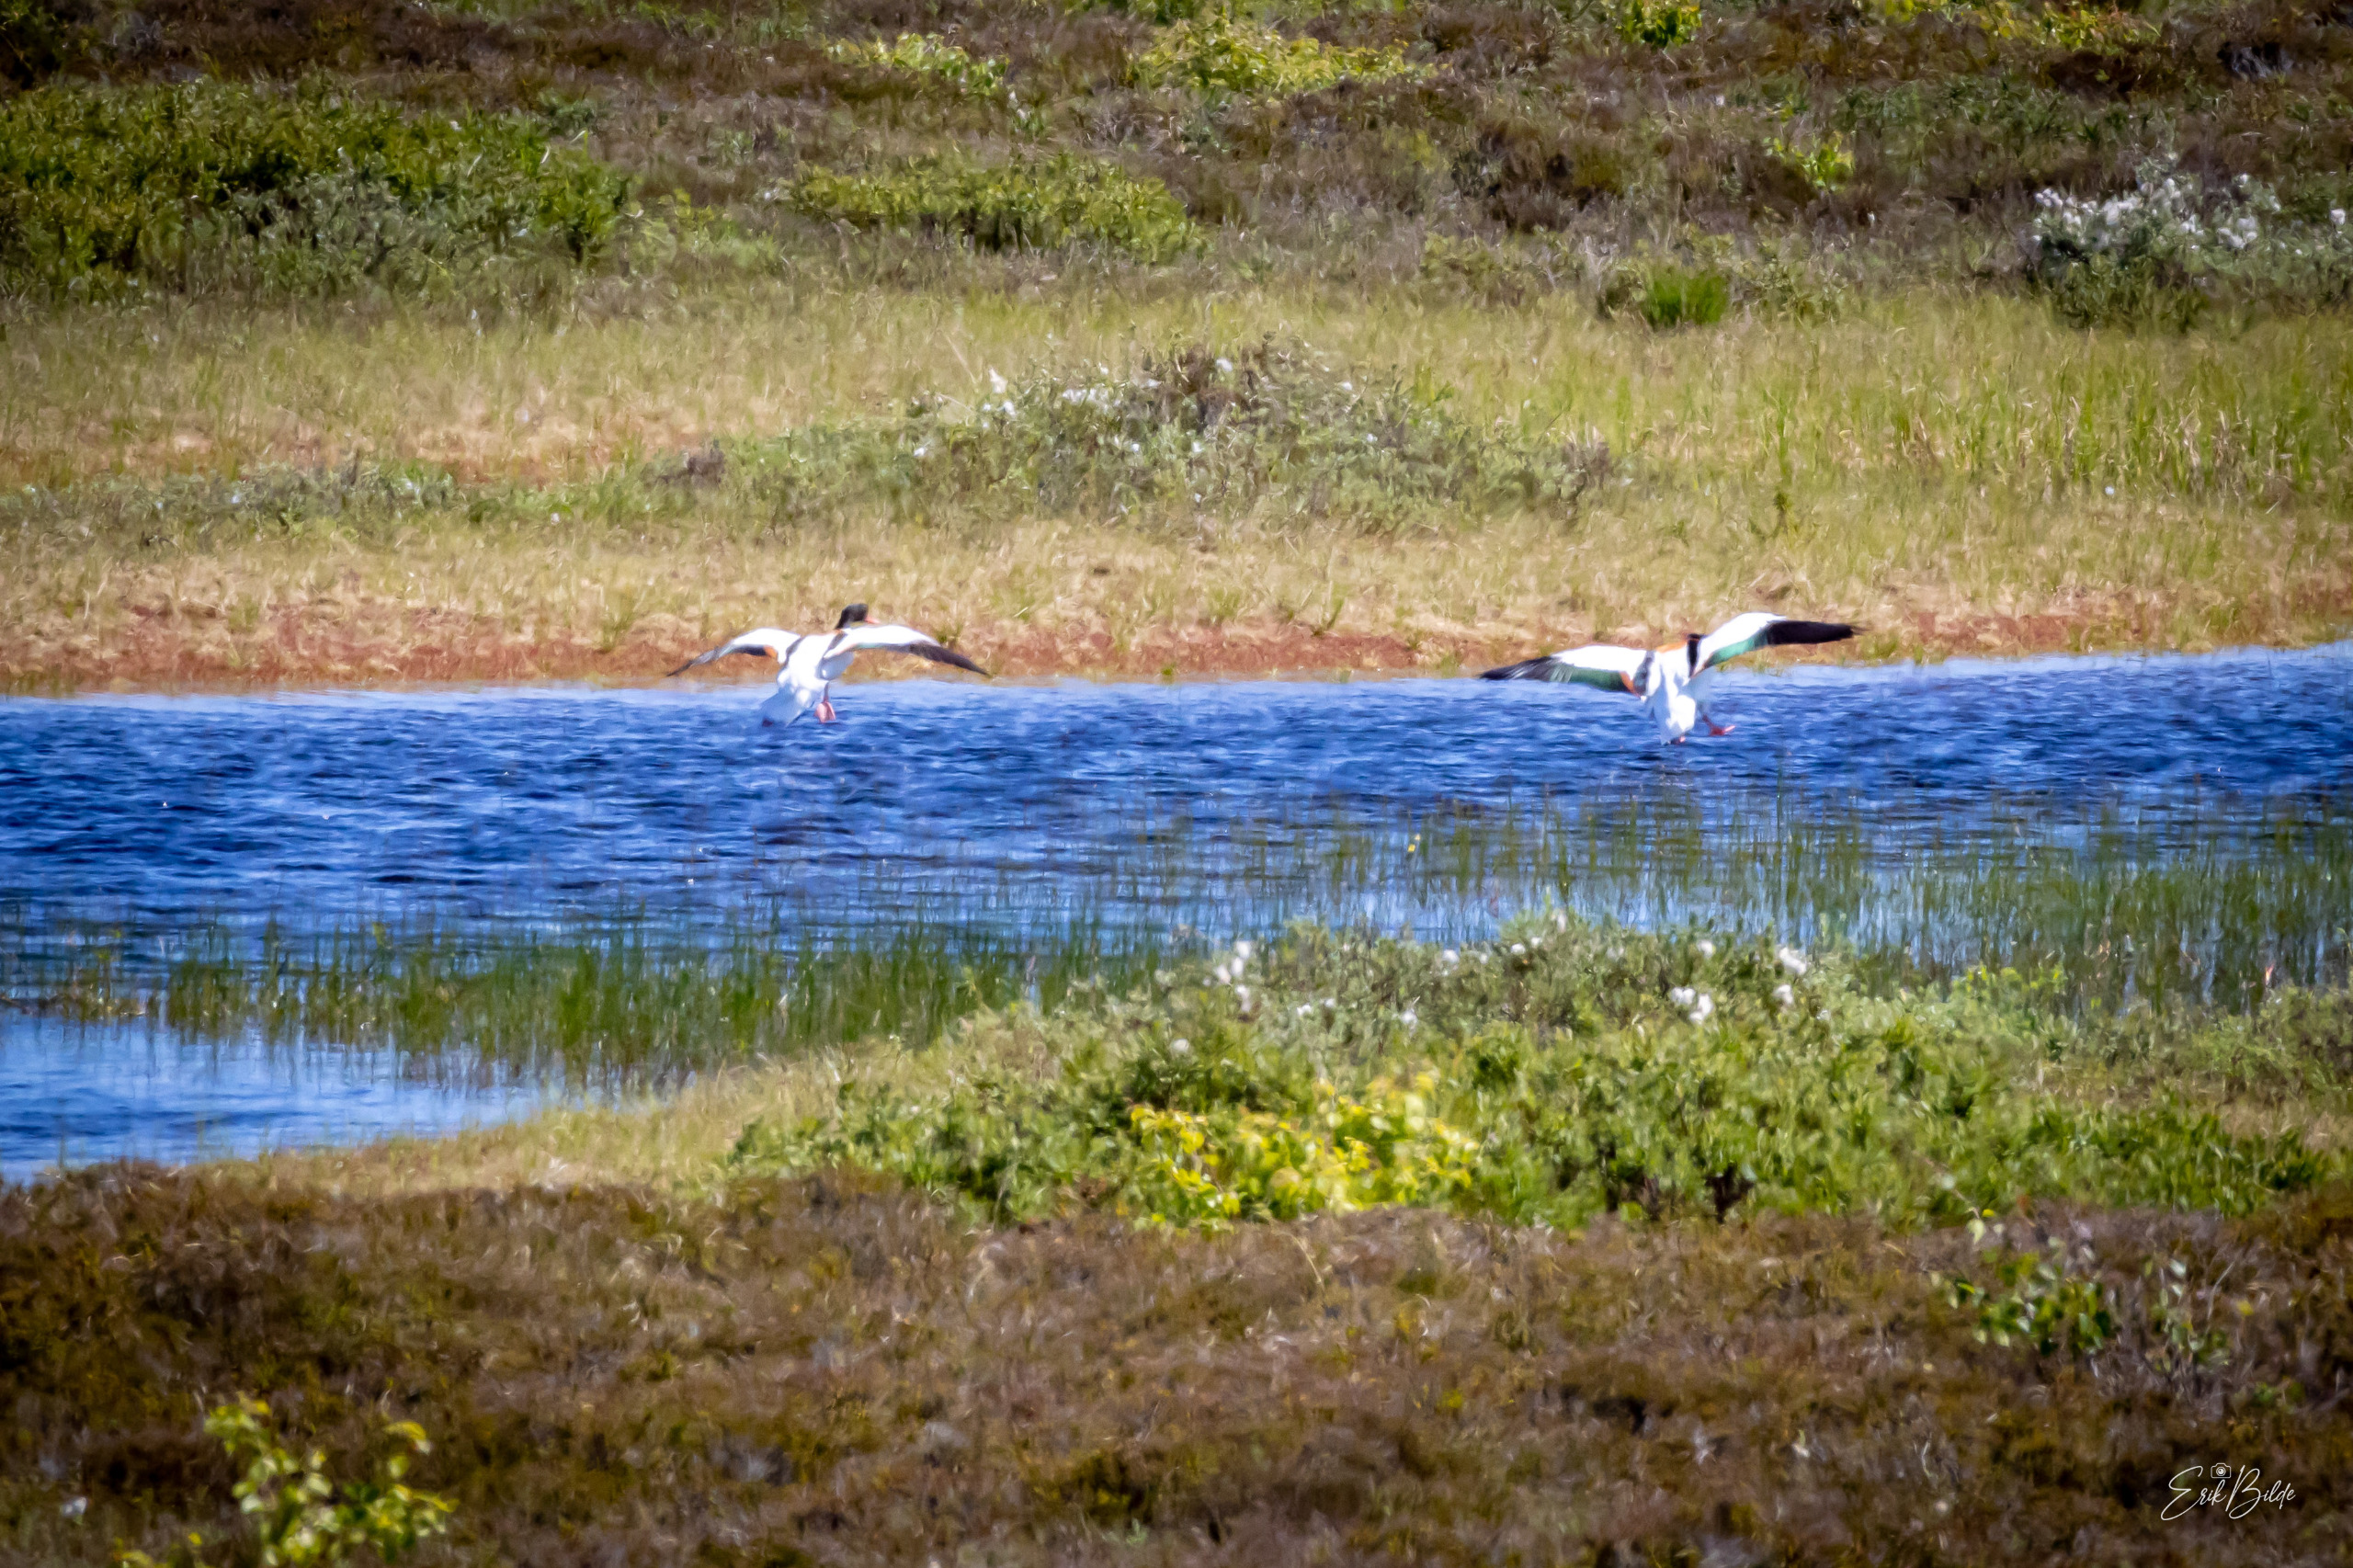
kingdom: Animalia
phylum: Chordata
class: Aves
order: Anseriformes
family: Anatidae
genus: Tadorna
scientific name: Tadorna tadorna
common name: Gravand
